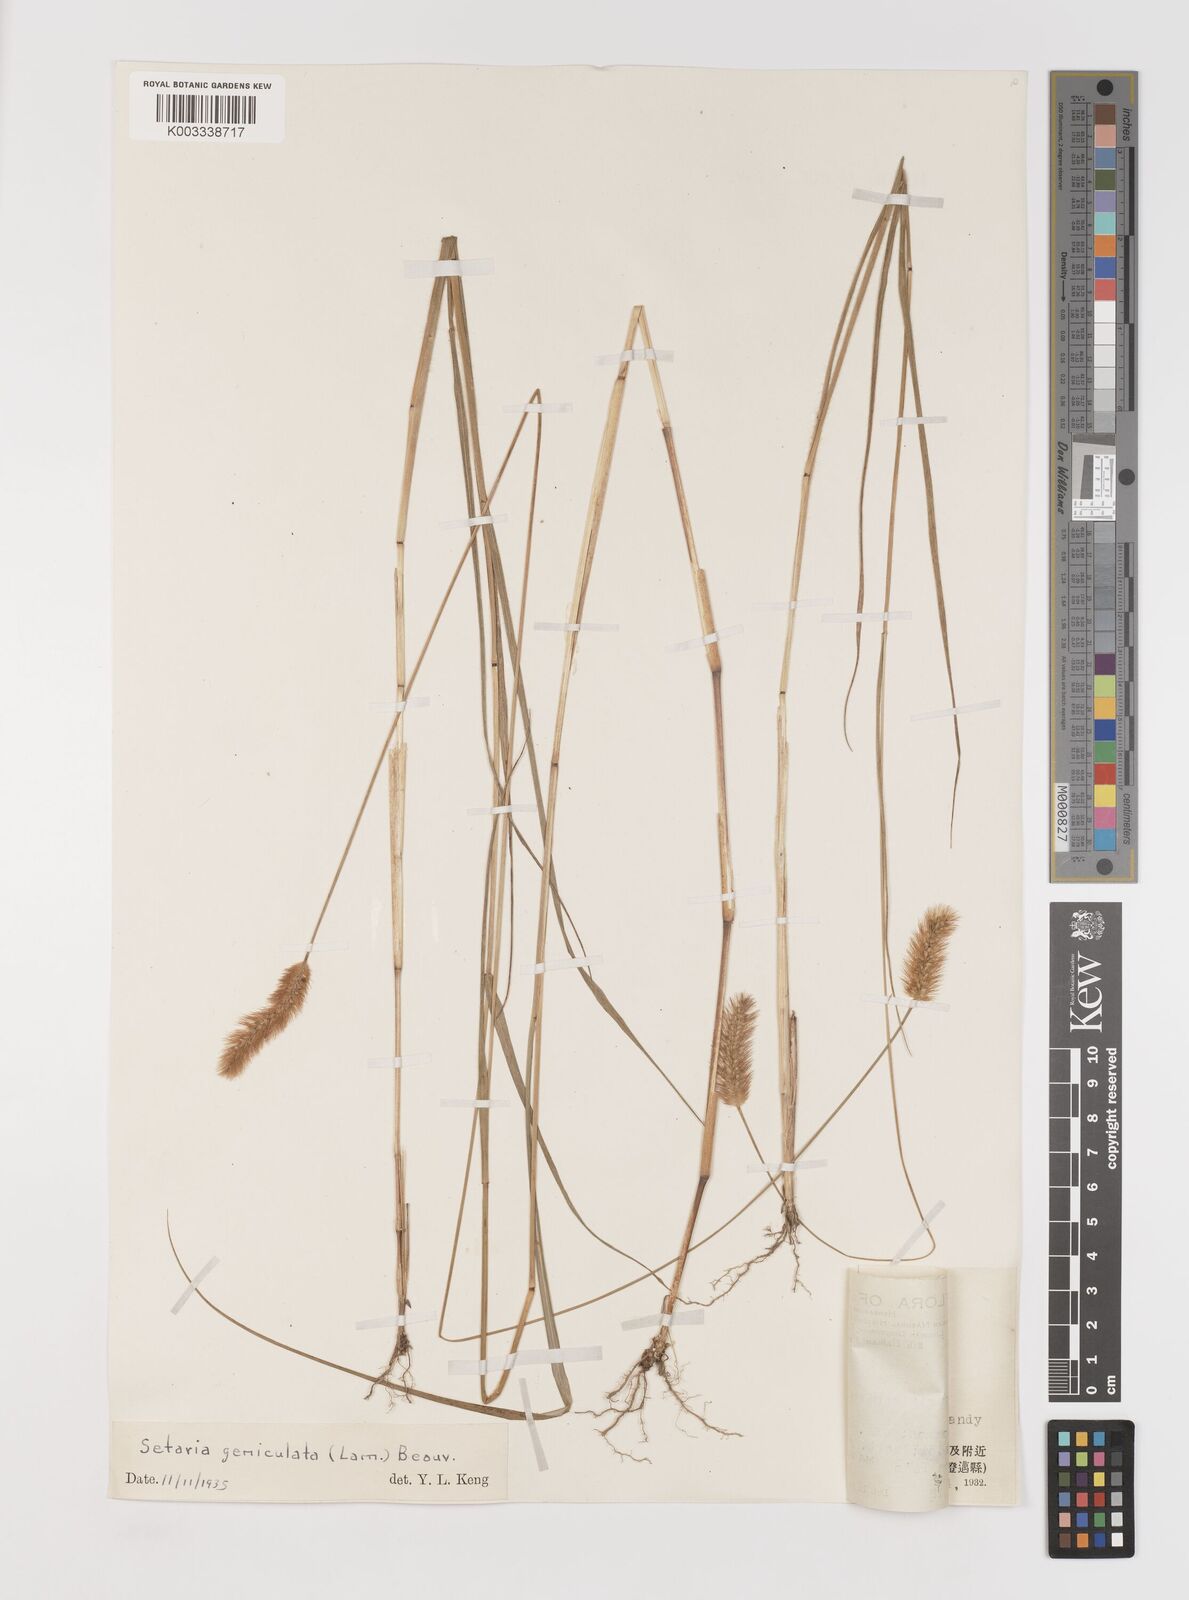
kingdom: Plantae
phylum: Tracheophyta
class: Liliopsida
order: Poales
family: Poaceae
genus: Setaria
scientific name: Setaria parviflora
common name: Knotroot bristle-grass
